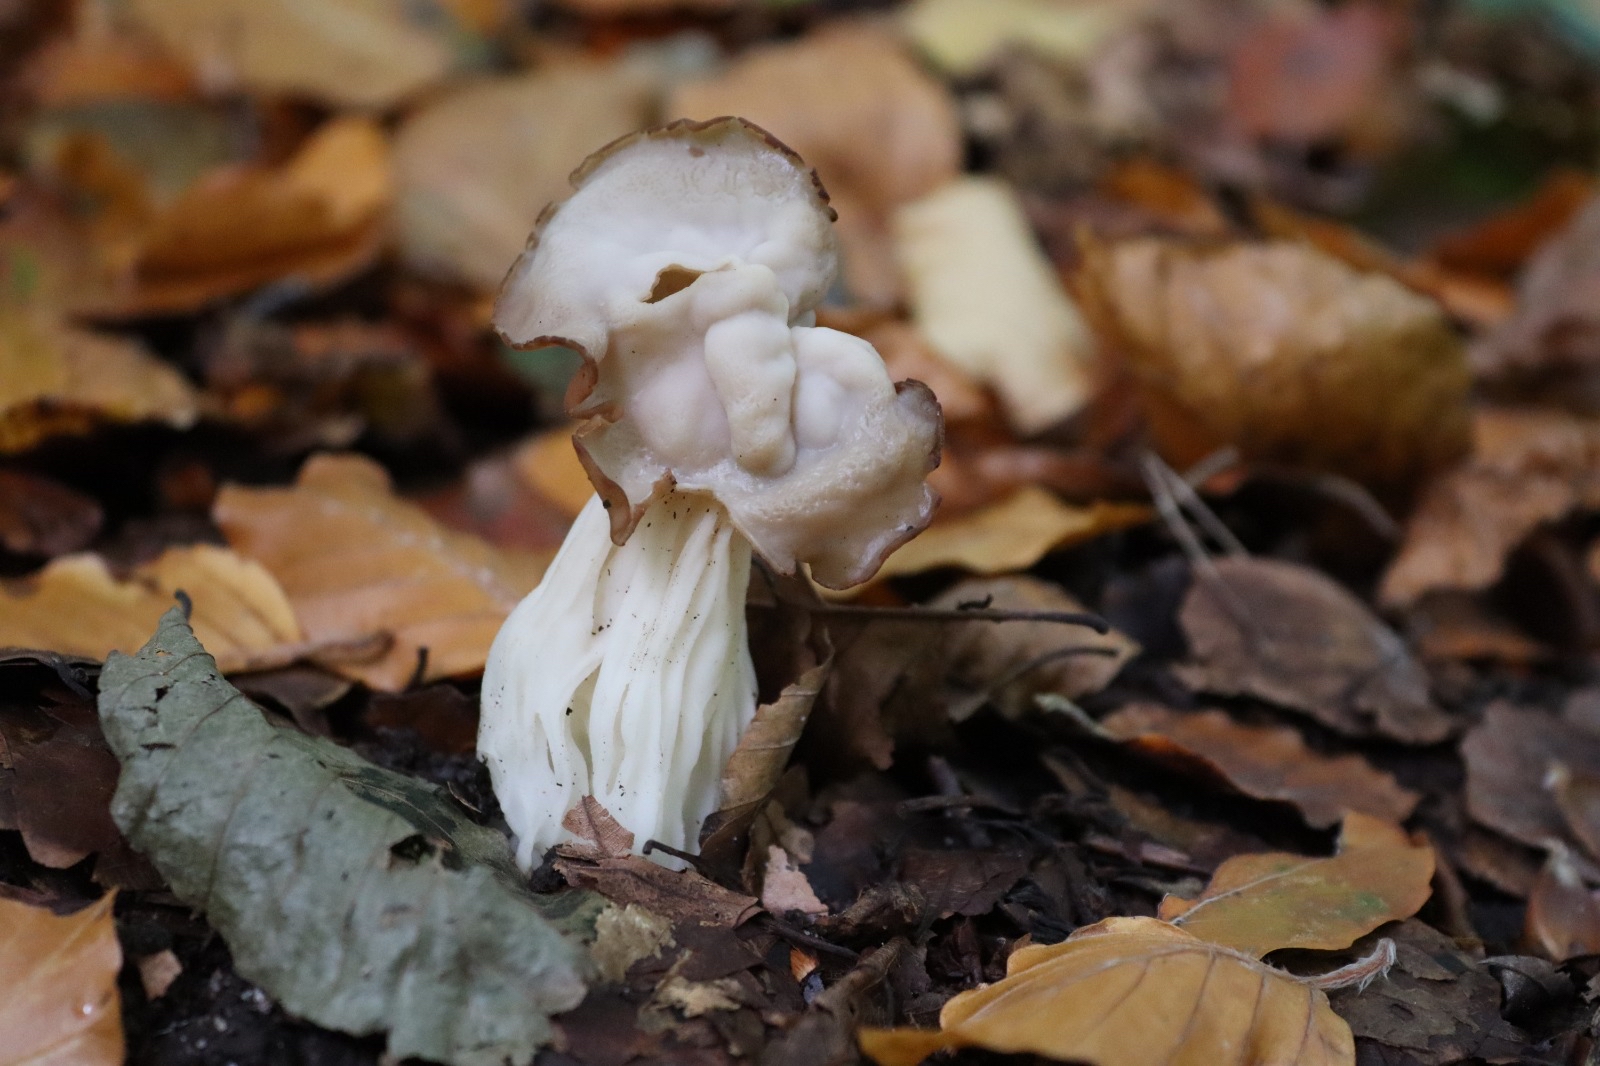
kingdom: Fungi
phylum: Ascomycota
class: Pezizomycetes
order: Pezizales
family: Helvellaceae
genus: Helvella
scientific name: Helvella crispa
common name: kruset foldhat
